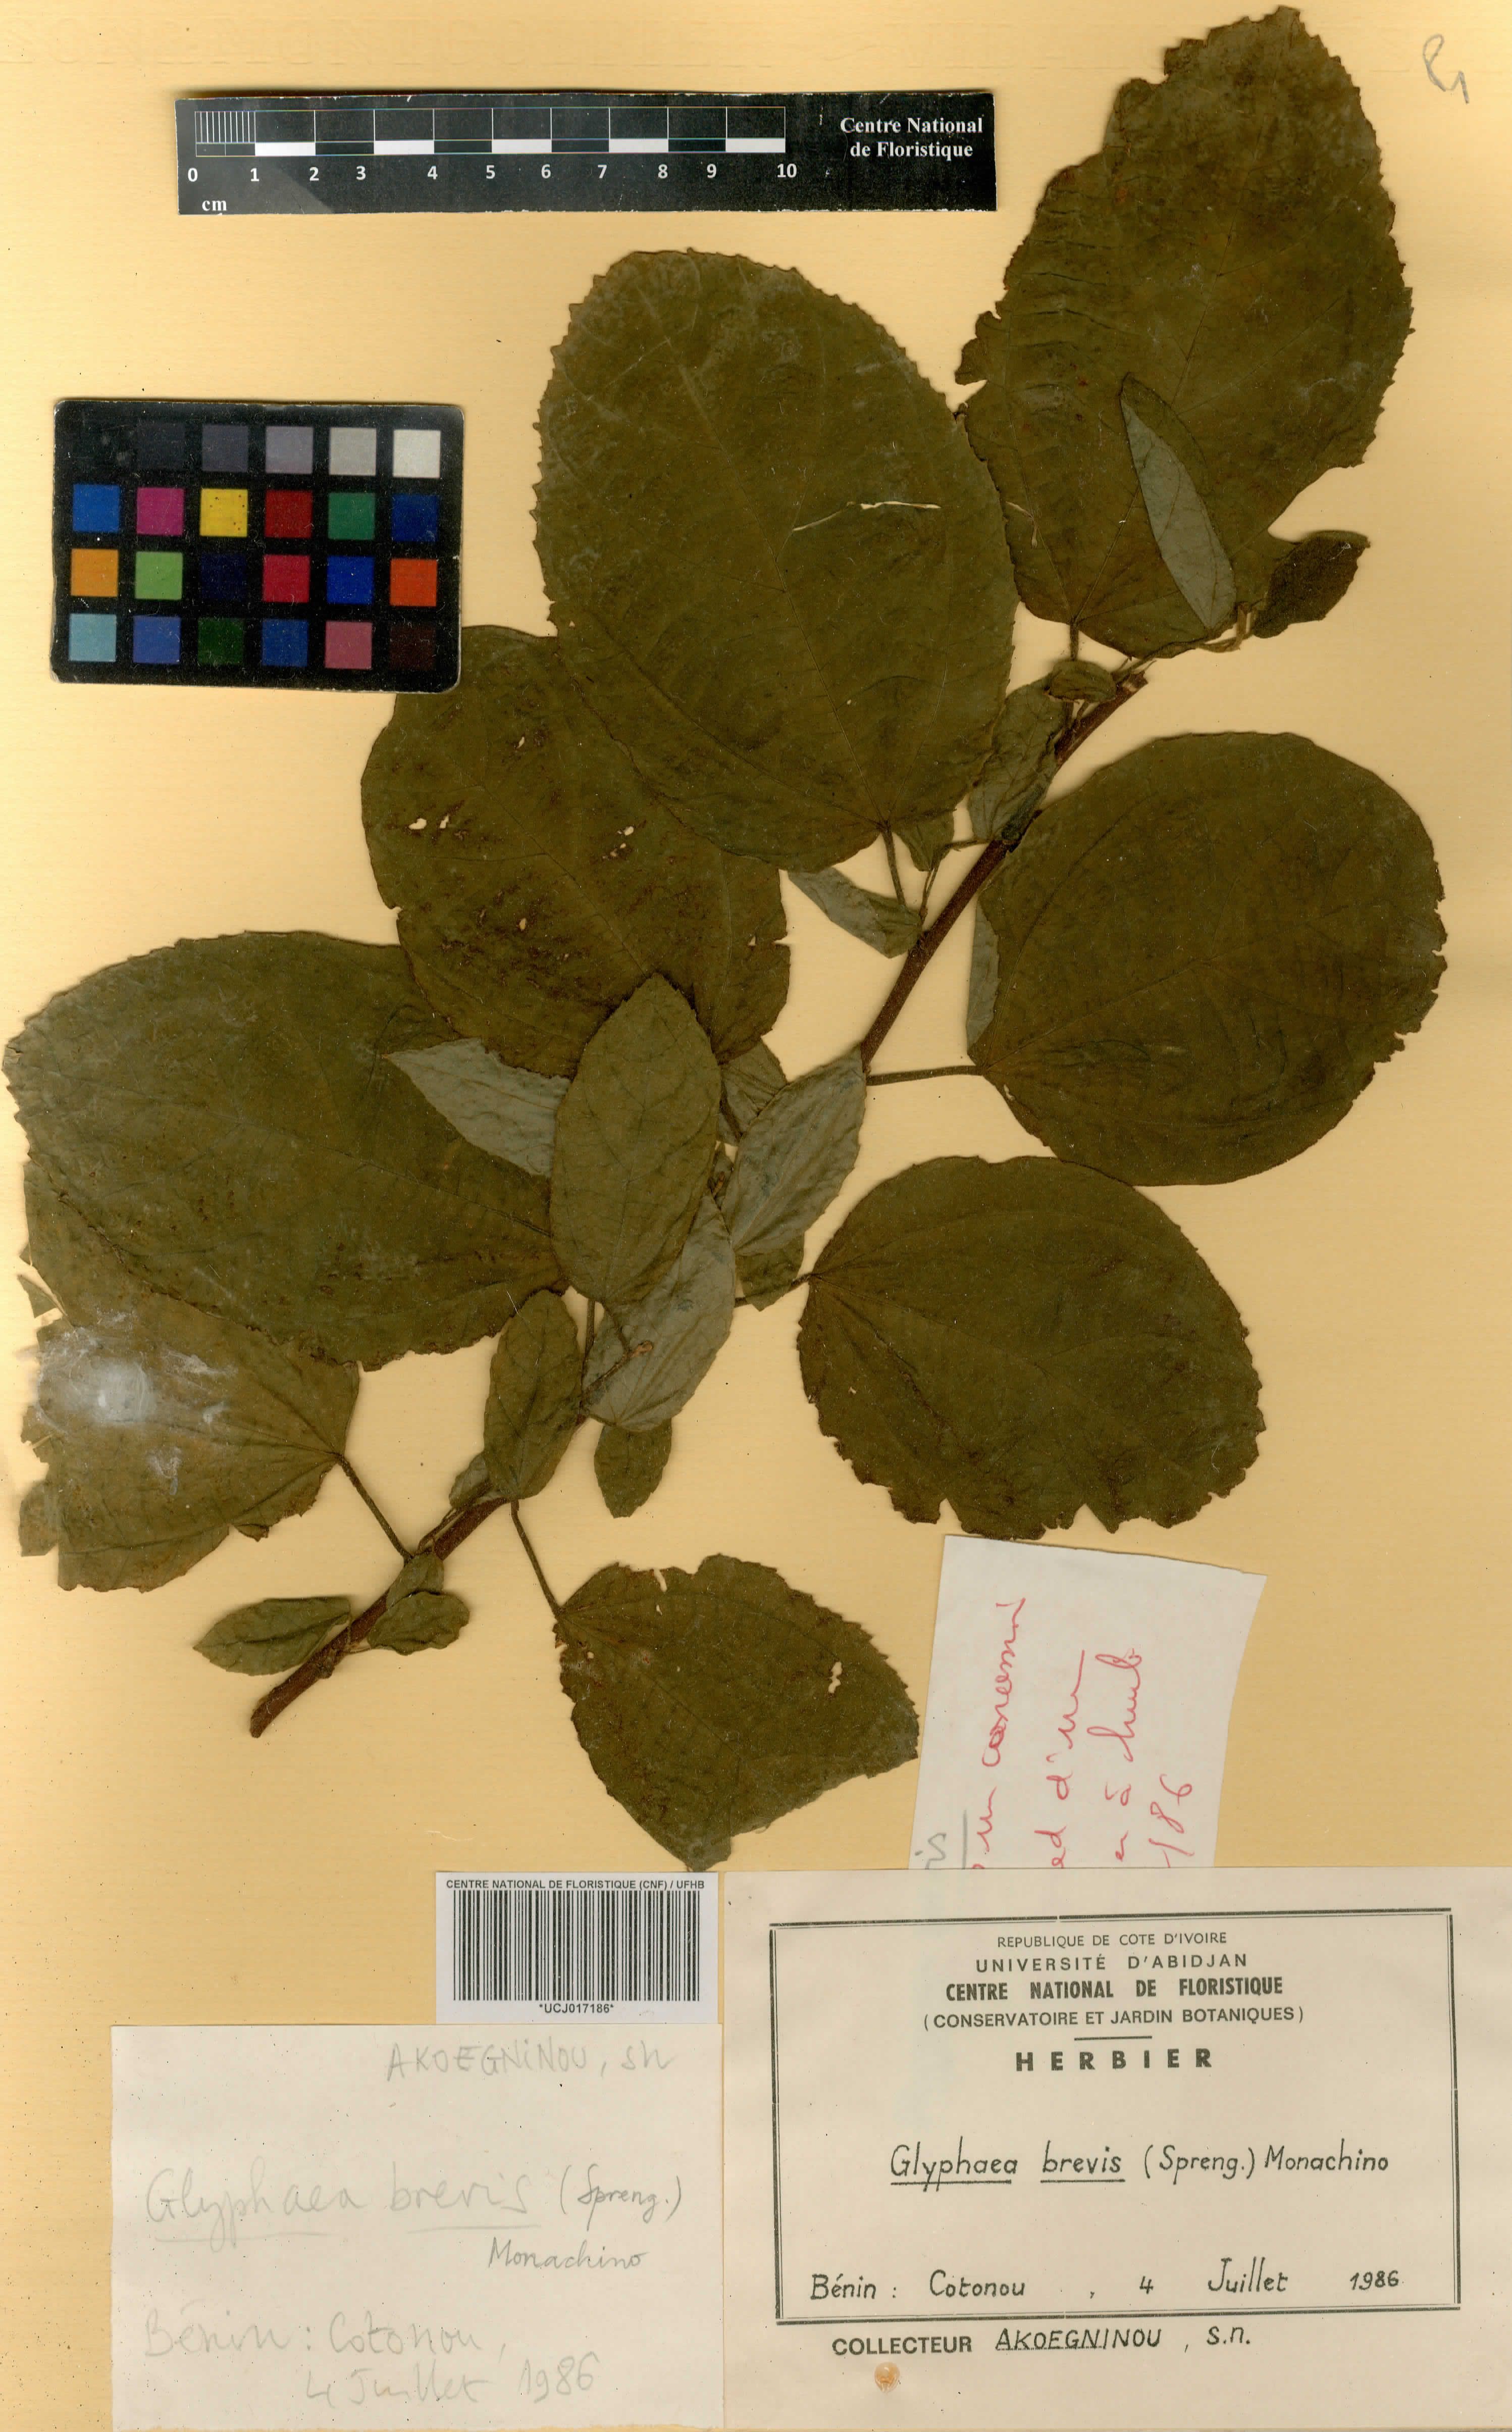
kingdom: Plantae
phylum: Tracheophyta
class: Magnoliopsida
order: Malvales
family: Malvaceae
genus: Glyphaea
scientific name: Glyphaea brevis
